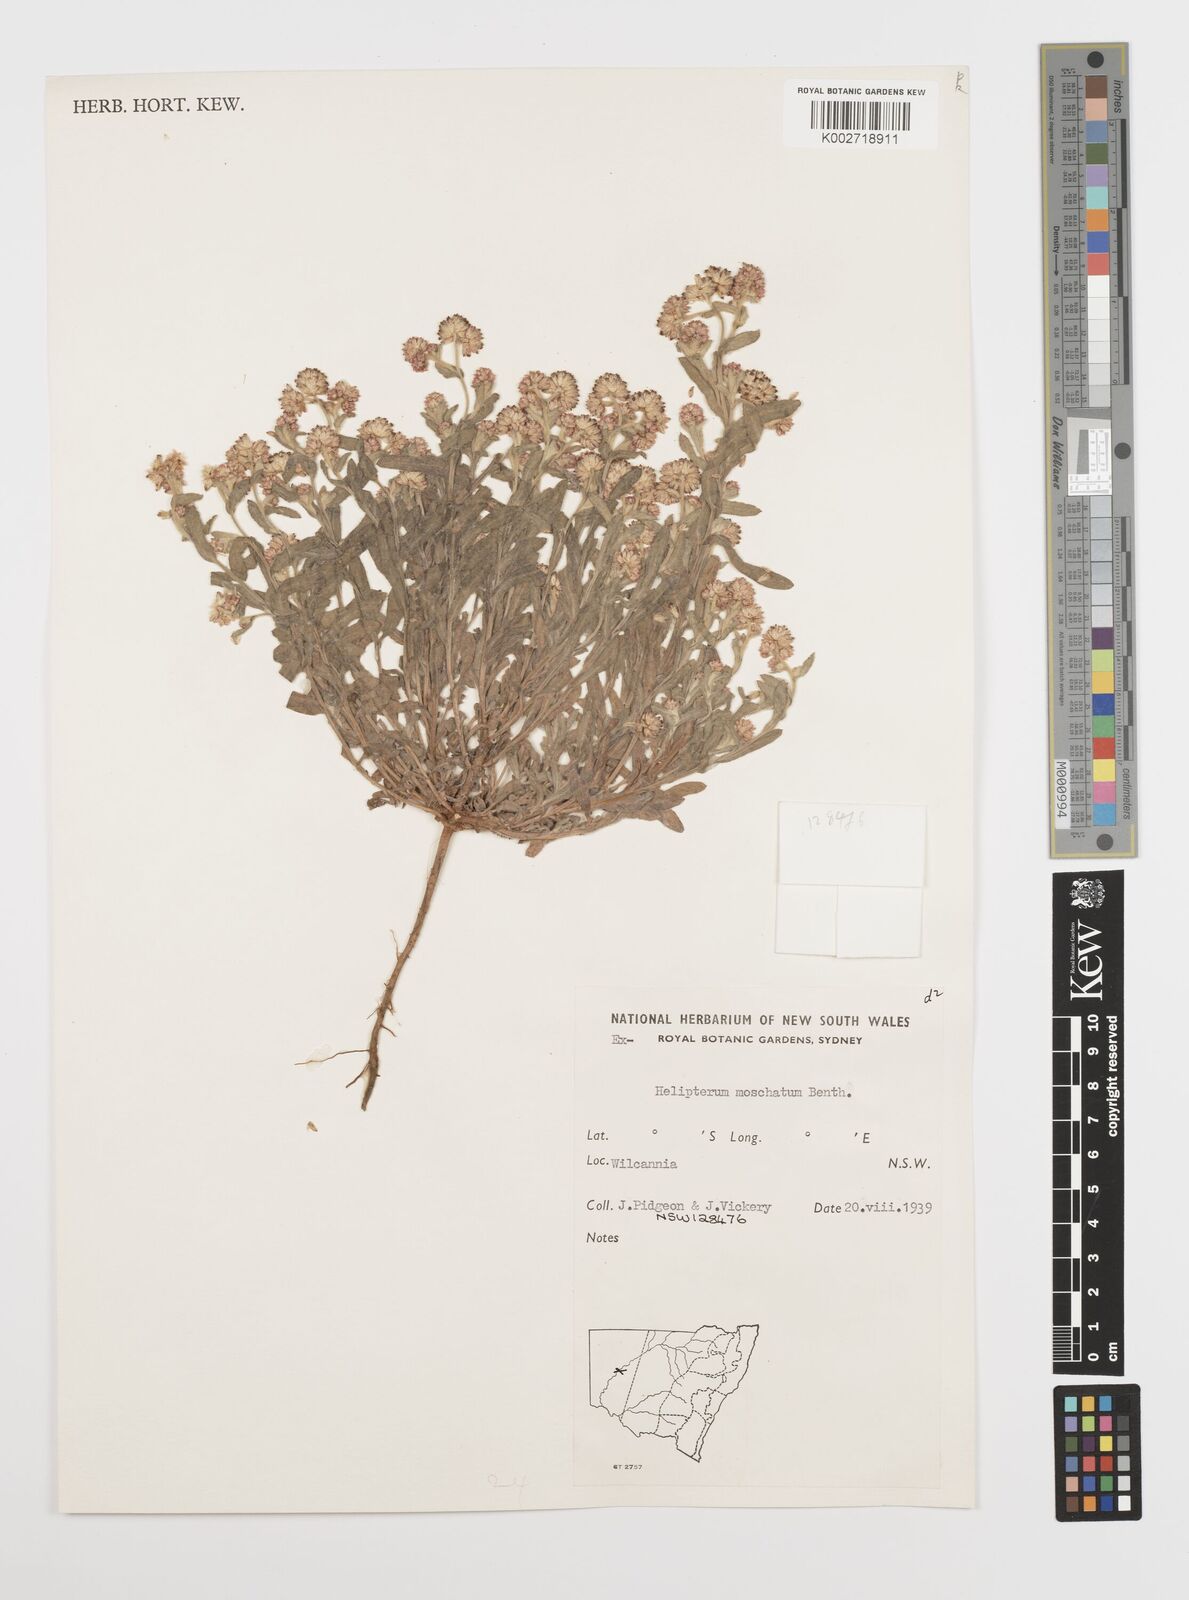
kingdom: Plantae
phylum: Tracheophyta
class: Magnoliopsida
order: Asterales
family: Asteraceae
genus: Rhodanthe
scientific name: Rhodanthe moschata
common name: Musk sunray
